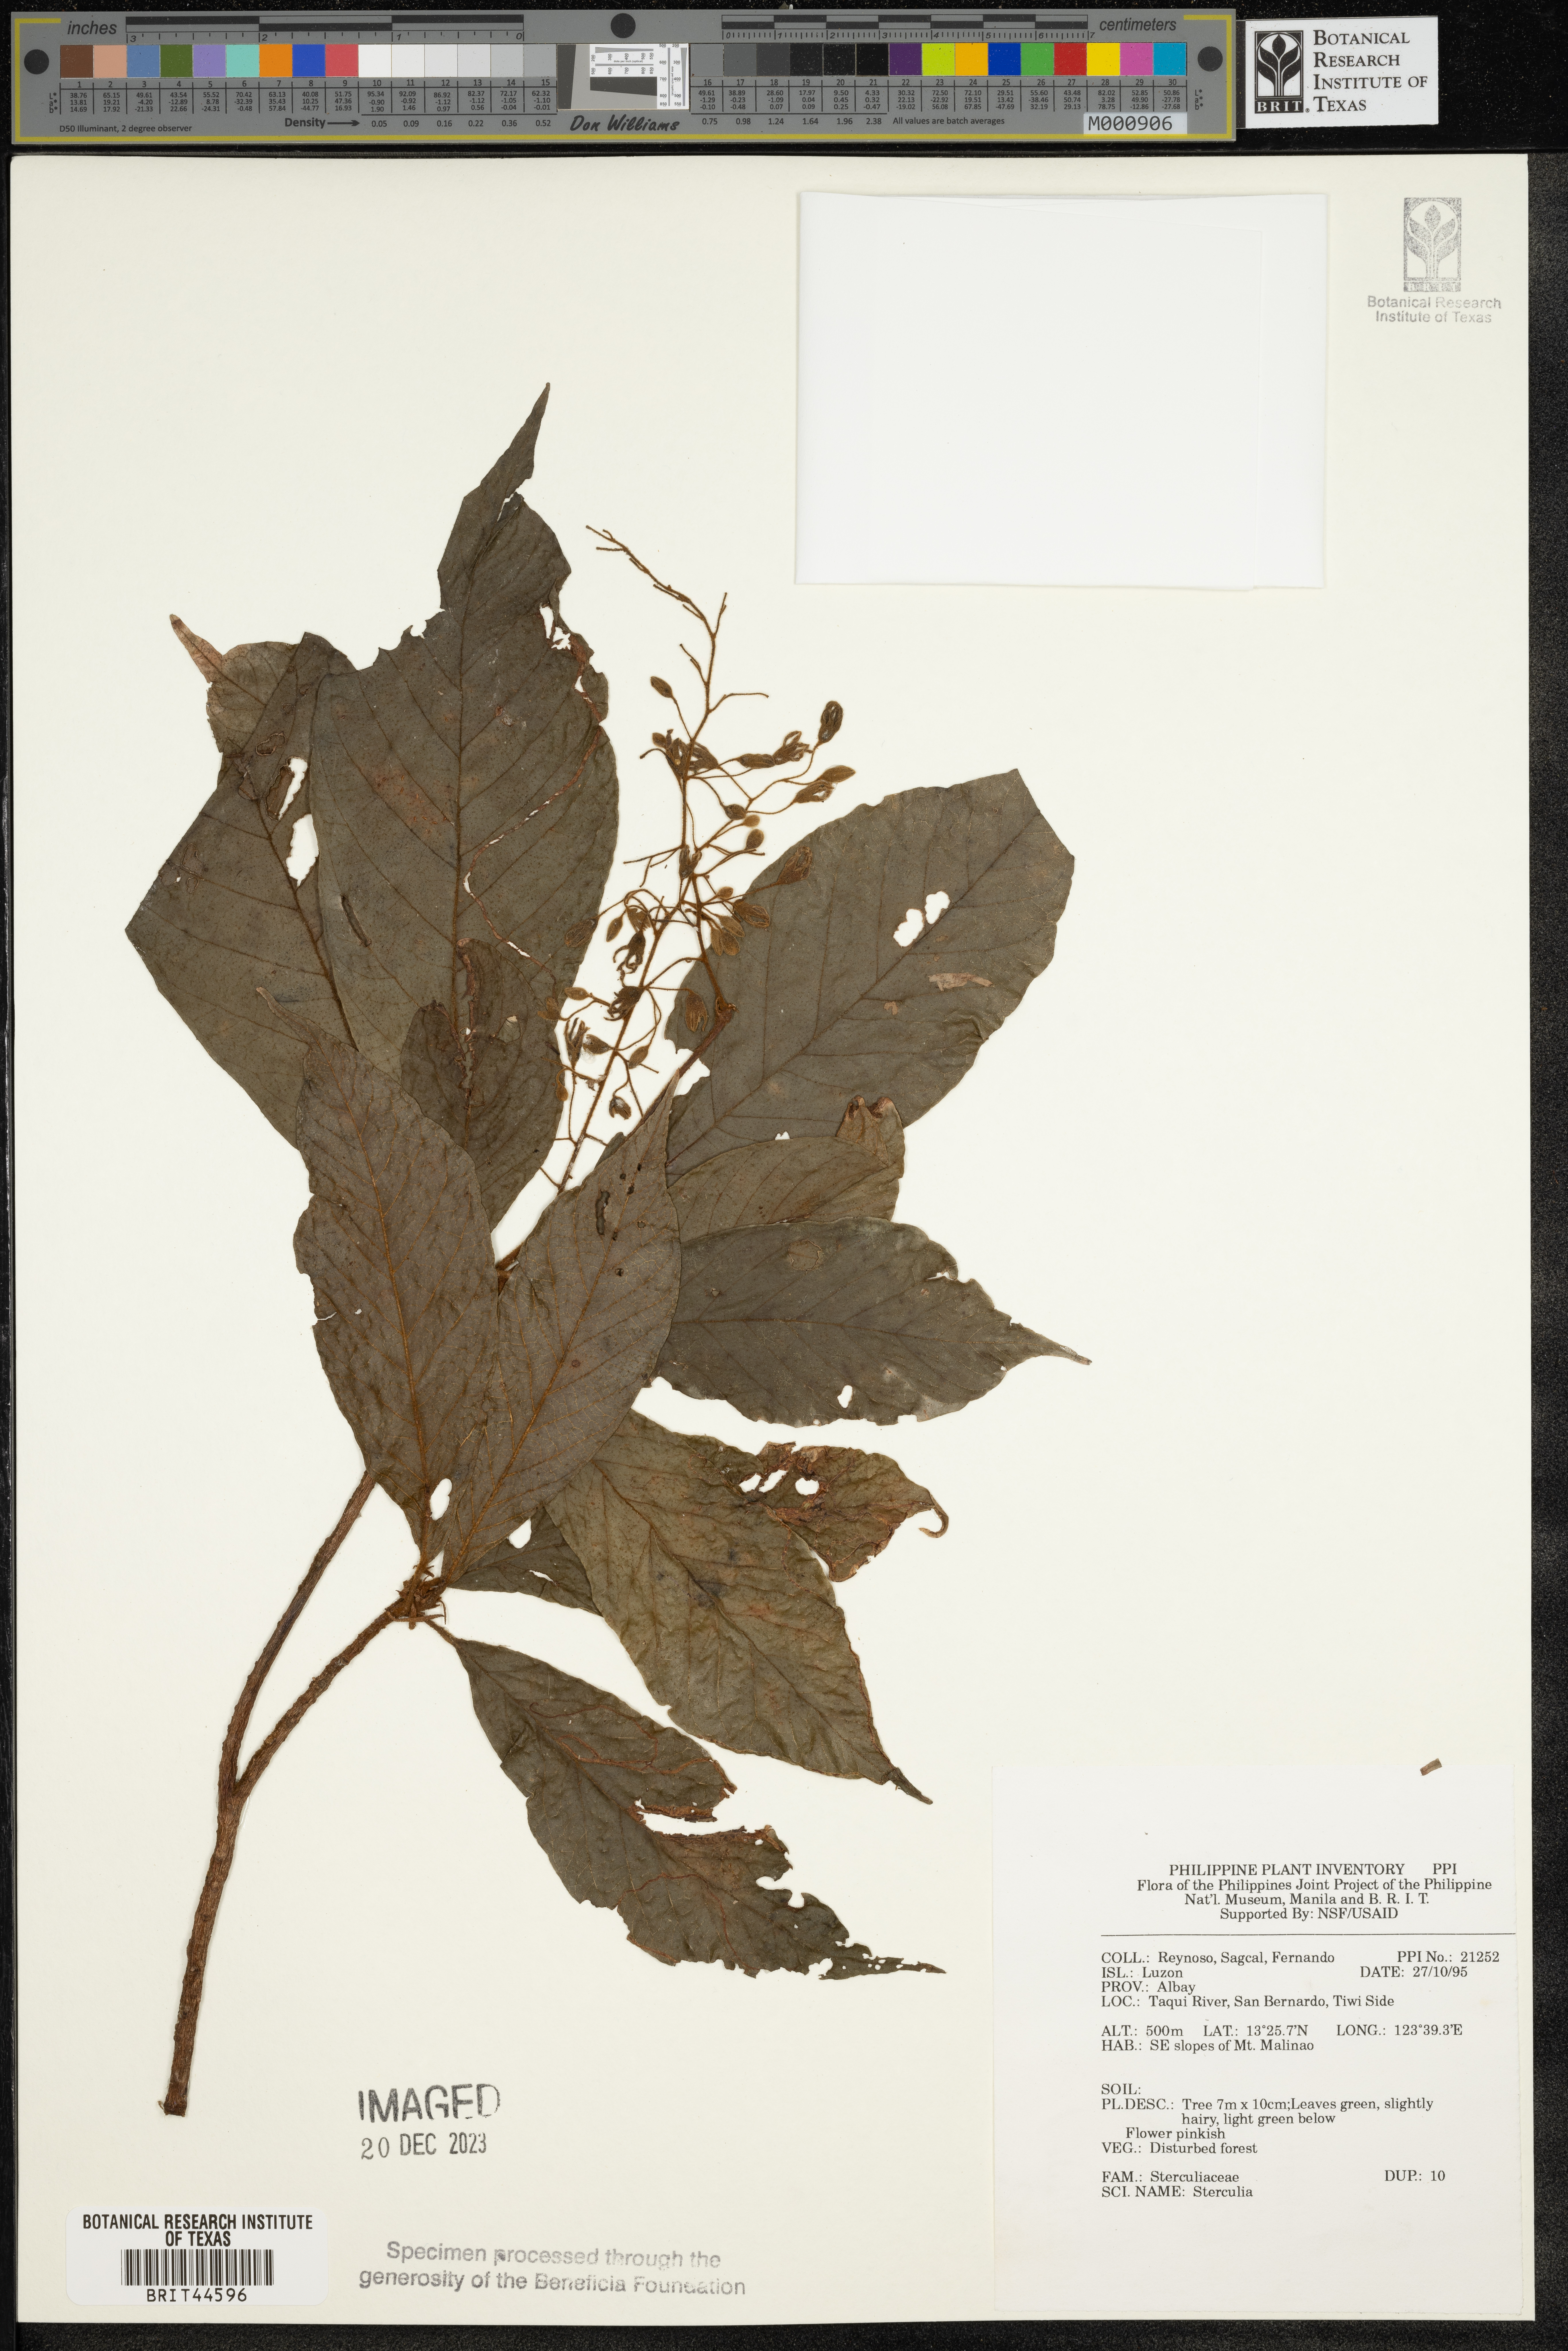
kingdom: Plantae
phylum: Tracheophyta
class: Magnoliopsida
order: Malvales
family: Malvaceae
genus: Sterculia
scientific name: Sterculia
